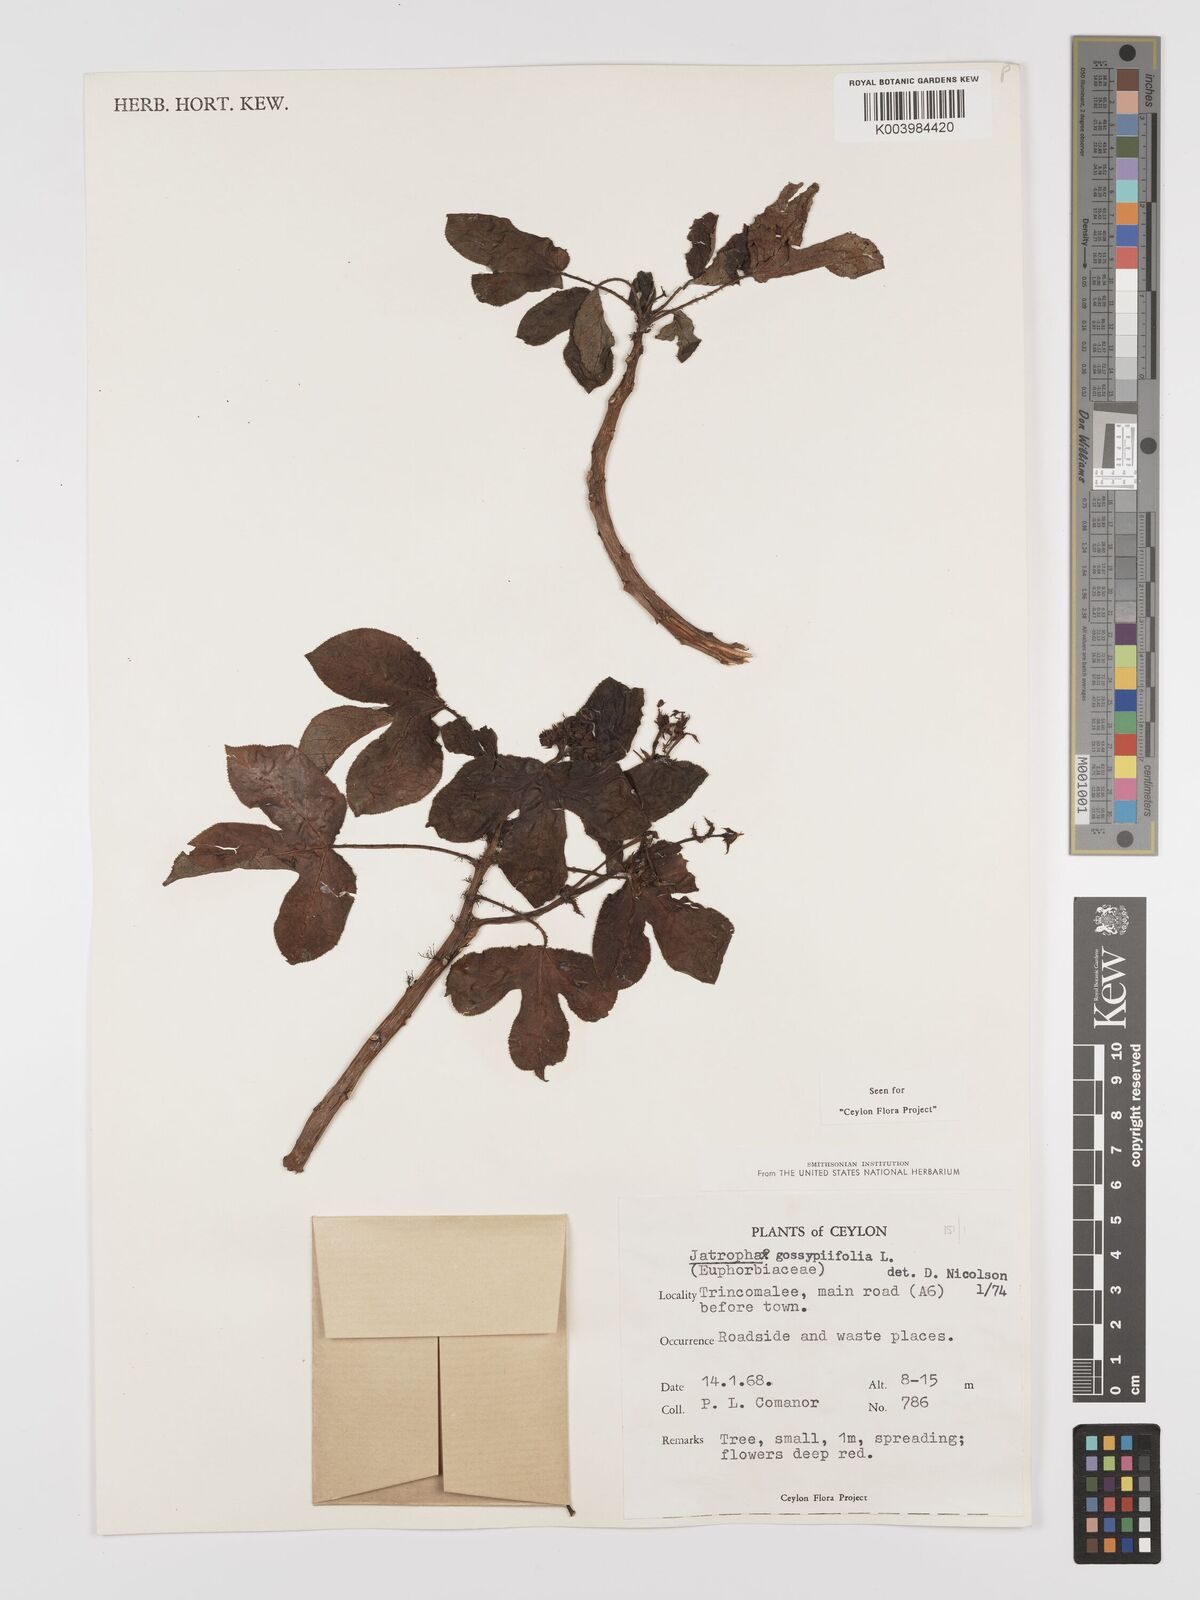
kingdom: Plantae
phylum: Tracheophyta
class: Magnoliopsida
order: Malpighiales
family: Euphorbiaceae
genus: Jatropha
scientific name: Jatropha gossypiifolia
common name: Bellyache bush
